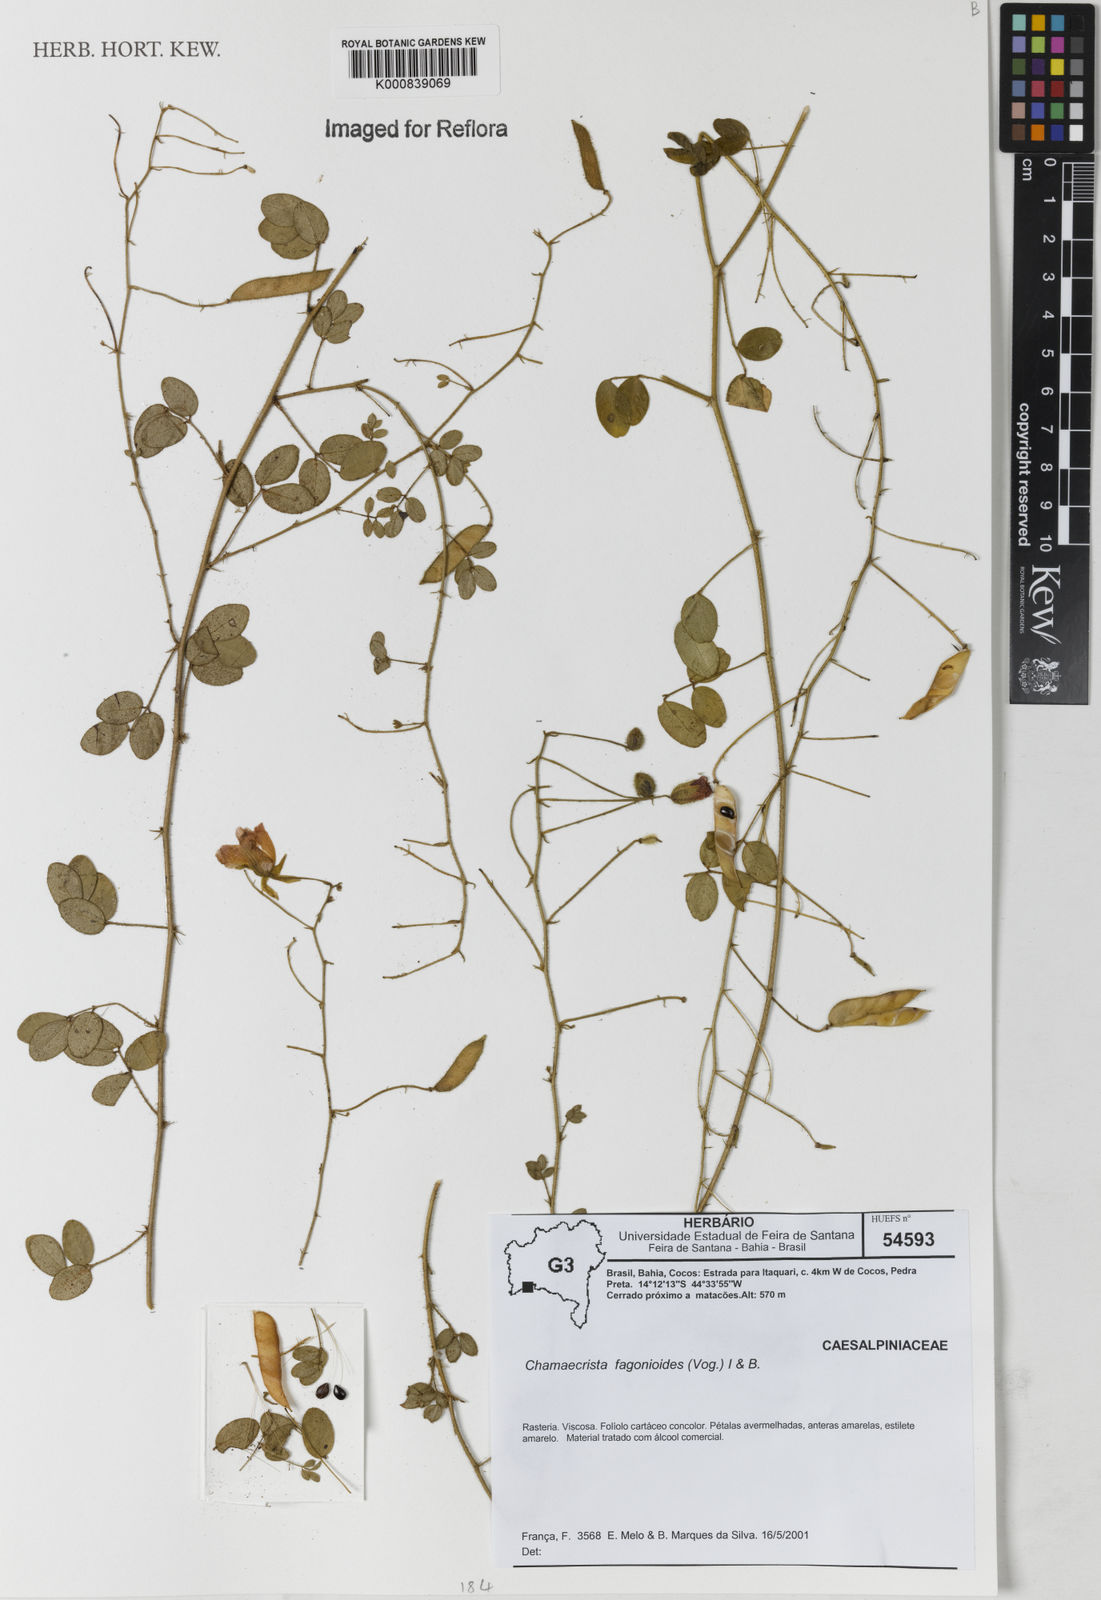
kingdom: Plantae
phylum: Tracheophyta
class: Magnoliopsida
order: Fabales
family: Fabaceae
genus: Chamaecrista
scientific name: Chamaecrista fagonioides
